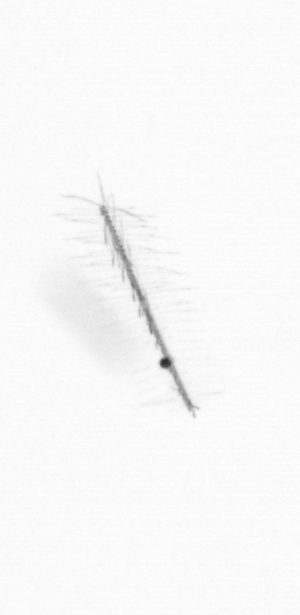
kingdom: Chromista
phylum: Ochrophyta
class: Bacillariophyceae
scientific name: Bacillariophyceae
